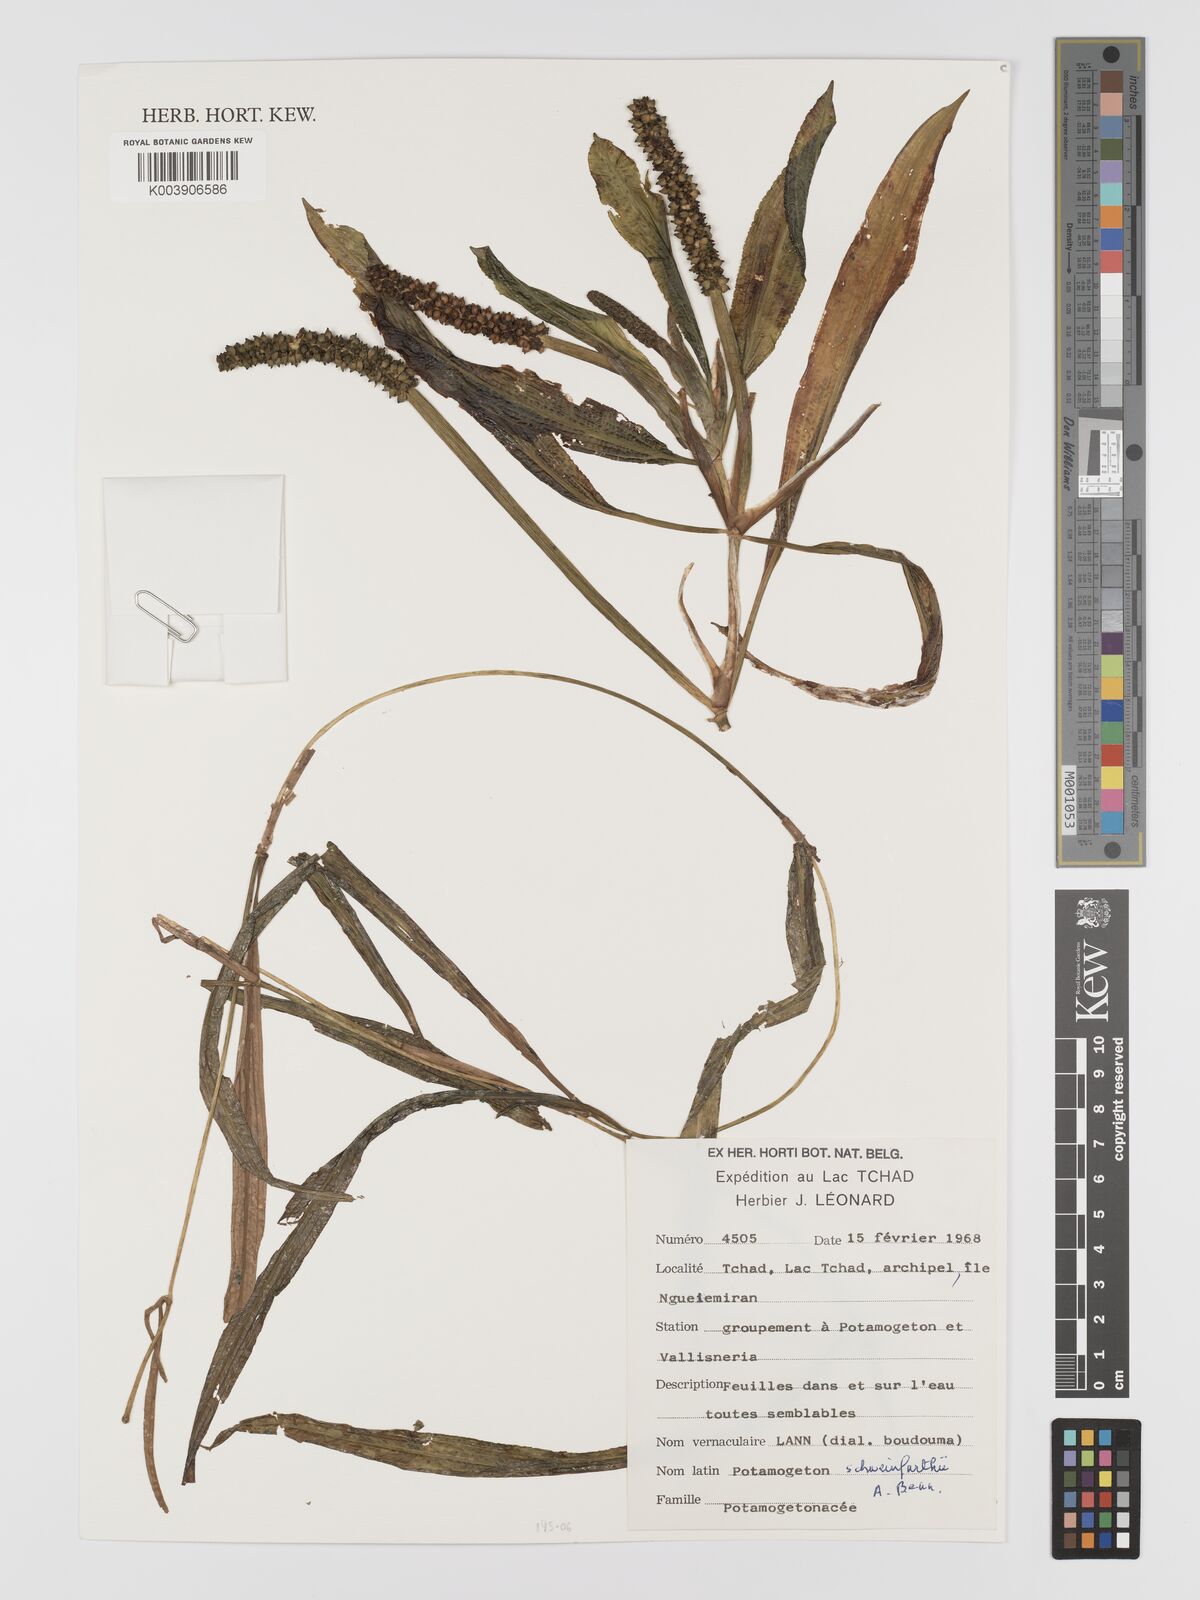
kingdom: Plantae
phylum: Tracheophyta
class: Liliopsida
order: Alismatales
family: Potamogetonaceae
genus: Potamogeton
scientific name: Potamogeton schweinfurthii
